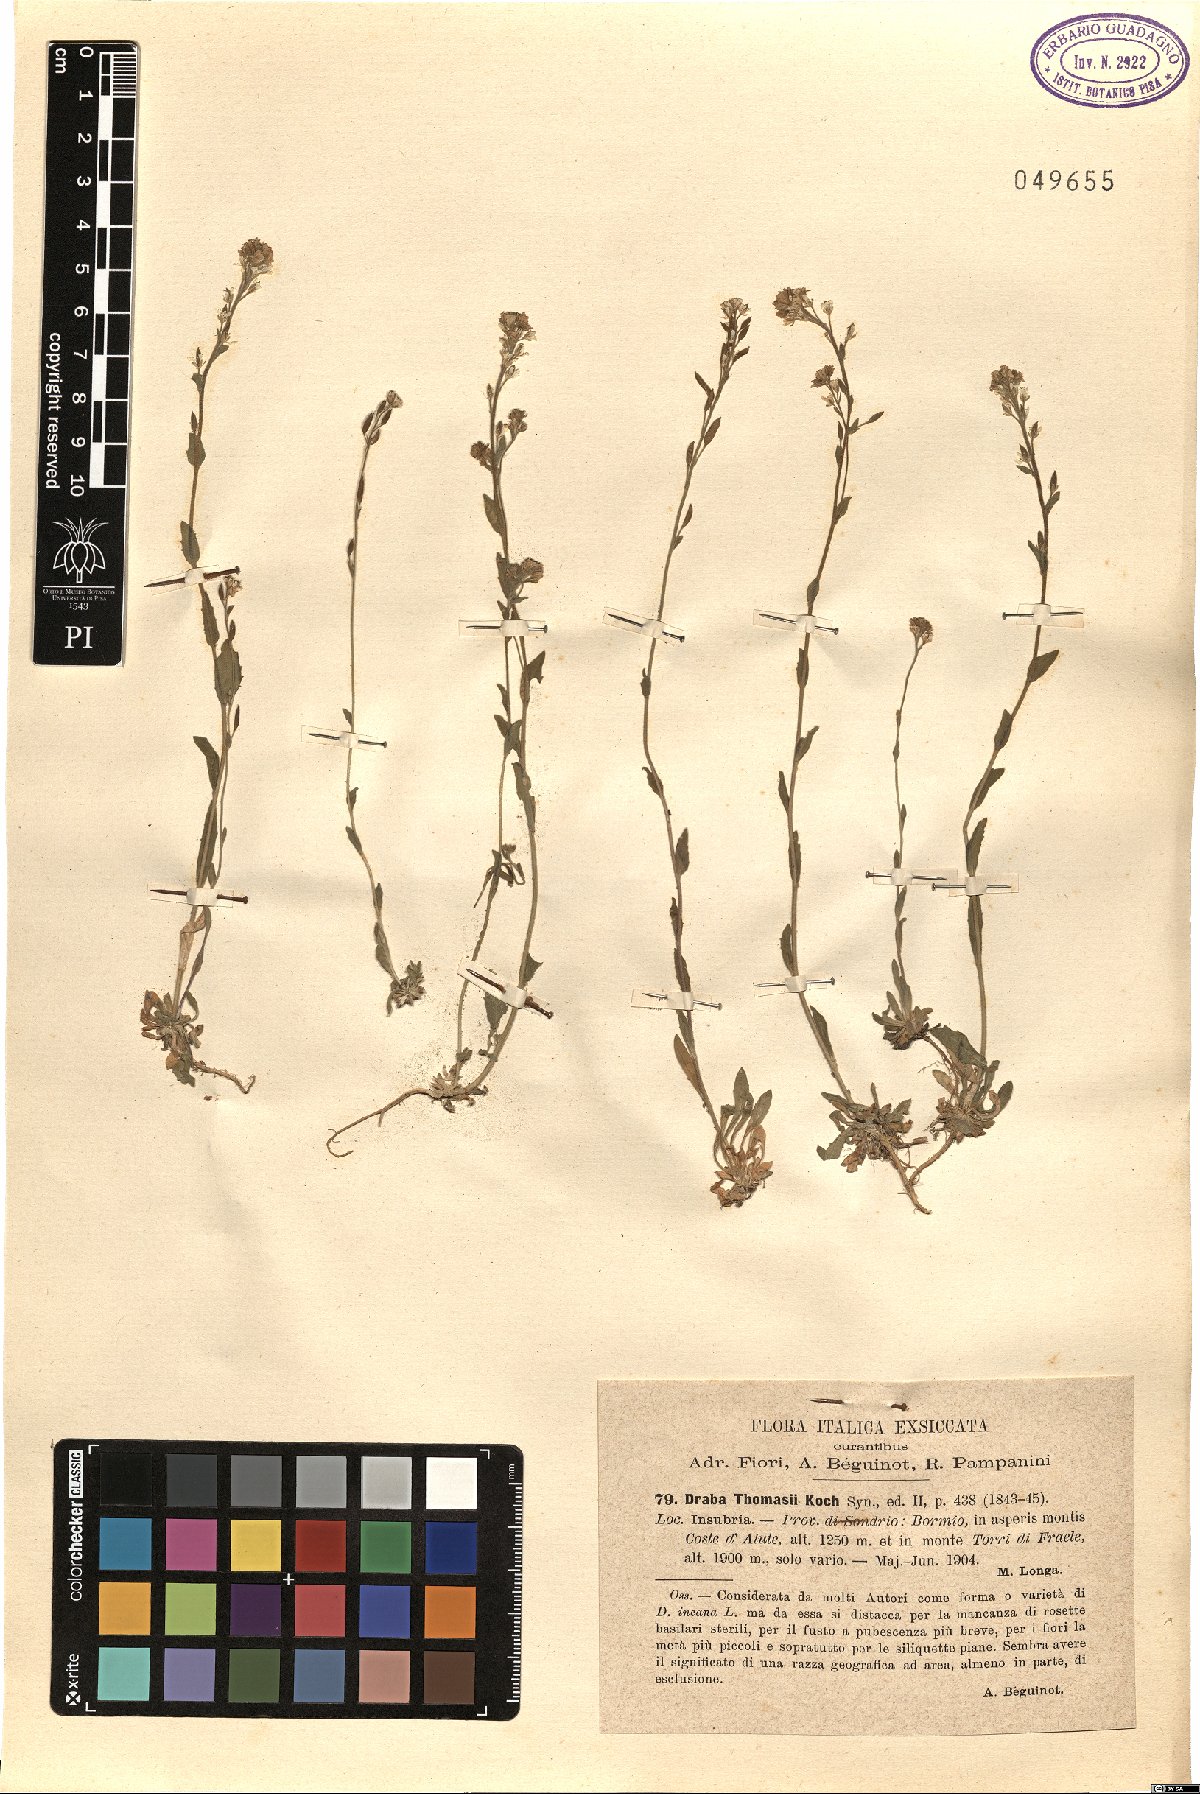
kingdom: Plantae
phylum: Tracheophyta
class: Magnoliopsida
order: Brassicales
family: Brassicaceae
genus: Draba
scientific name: Draba thomasii
